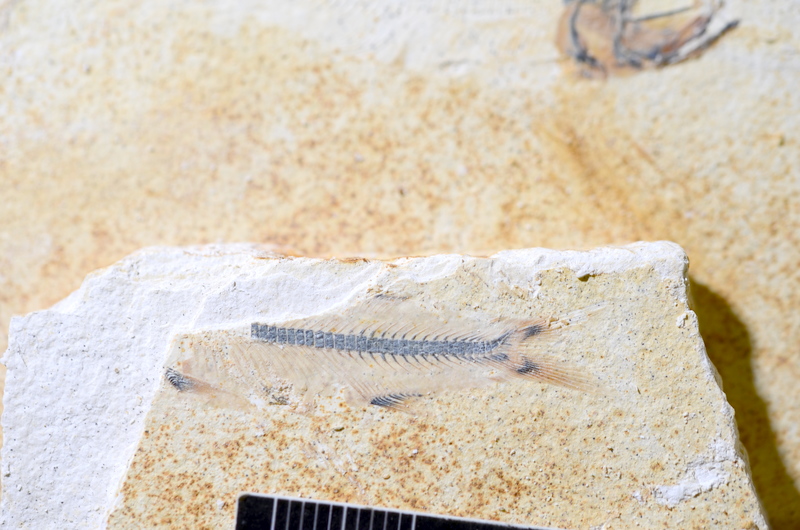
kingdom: Animalia
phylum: Chordata
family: Ascalaboidae
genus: Ebertichthys
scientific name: Ebertichthys ettlingensis
